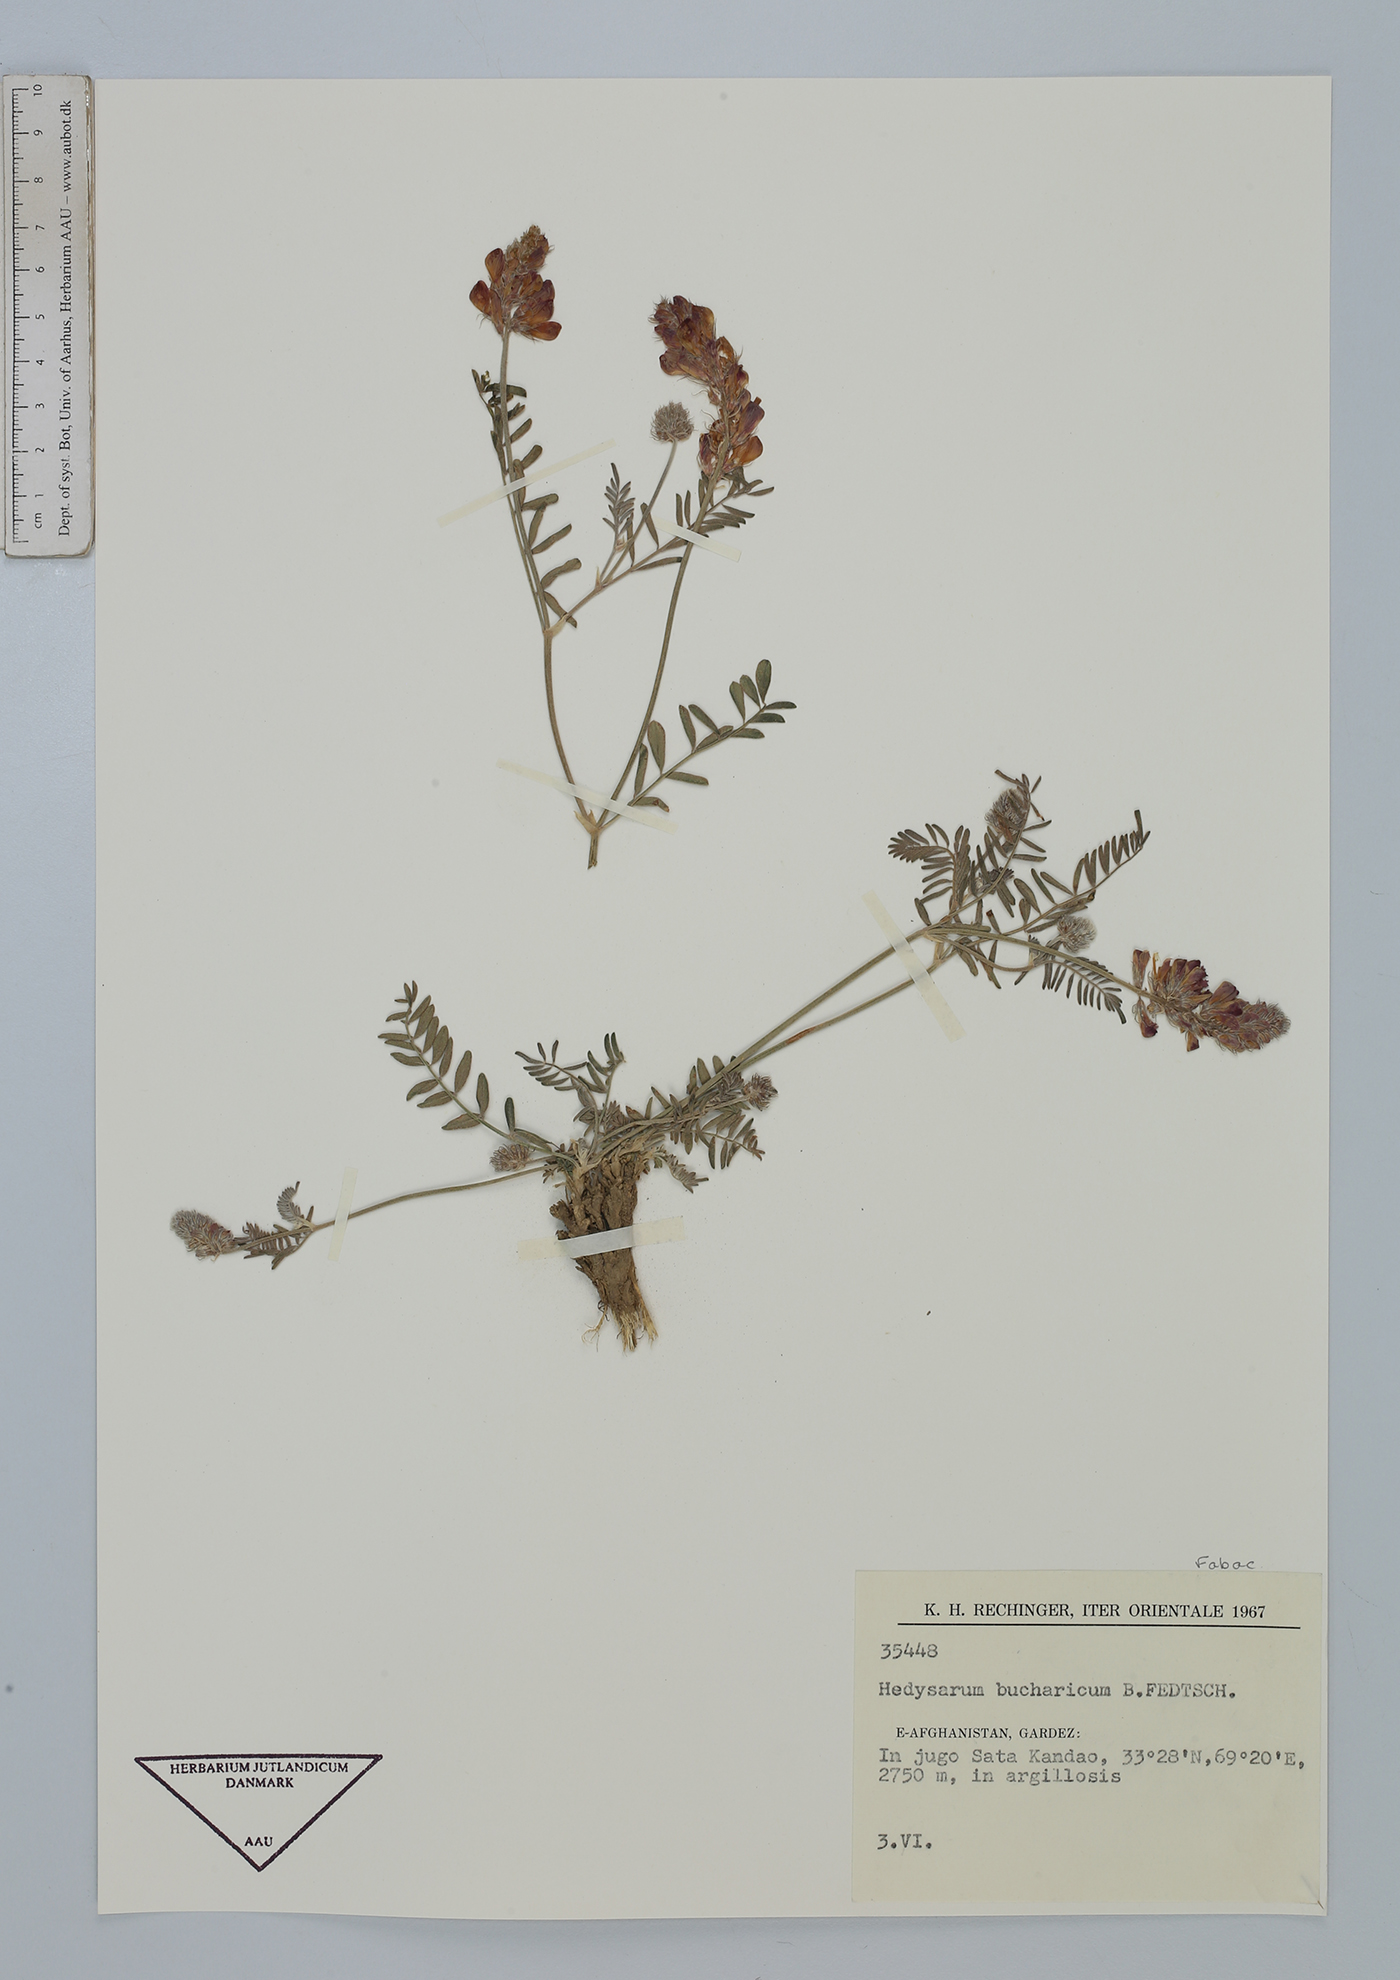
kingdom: Plantae
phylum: Tracheophyta
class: Magnoliopsida
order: Fabales
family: Fabaceae
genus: Hedysarum
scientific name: Hedysarum bucharicum
